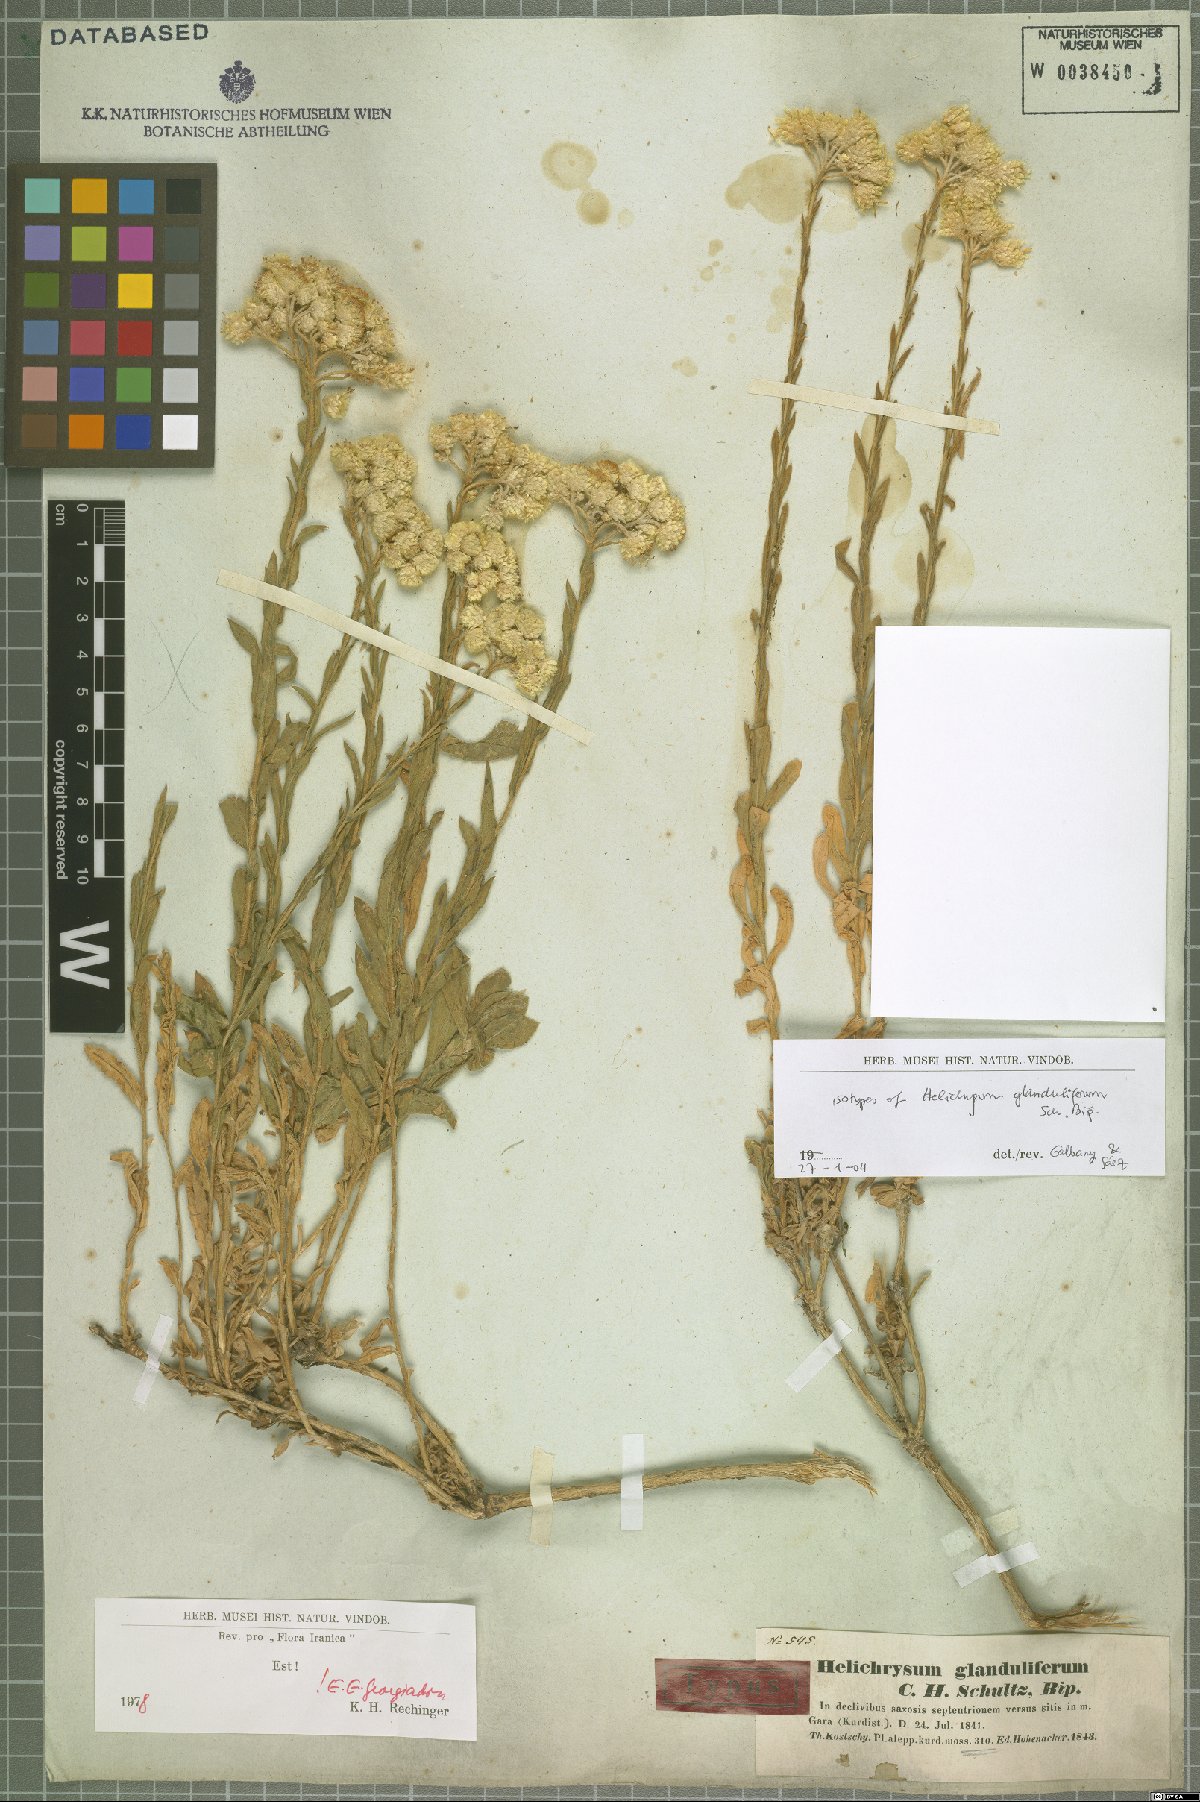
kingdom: Plantae
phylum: Tracheophyta
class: Magnoliopsida
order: Asterales
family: Asteraceae
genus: Helichrysum
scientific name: Helichrysum glanduliferum
